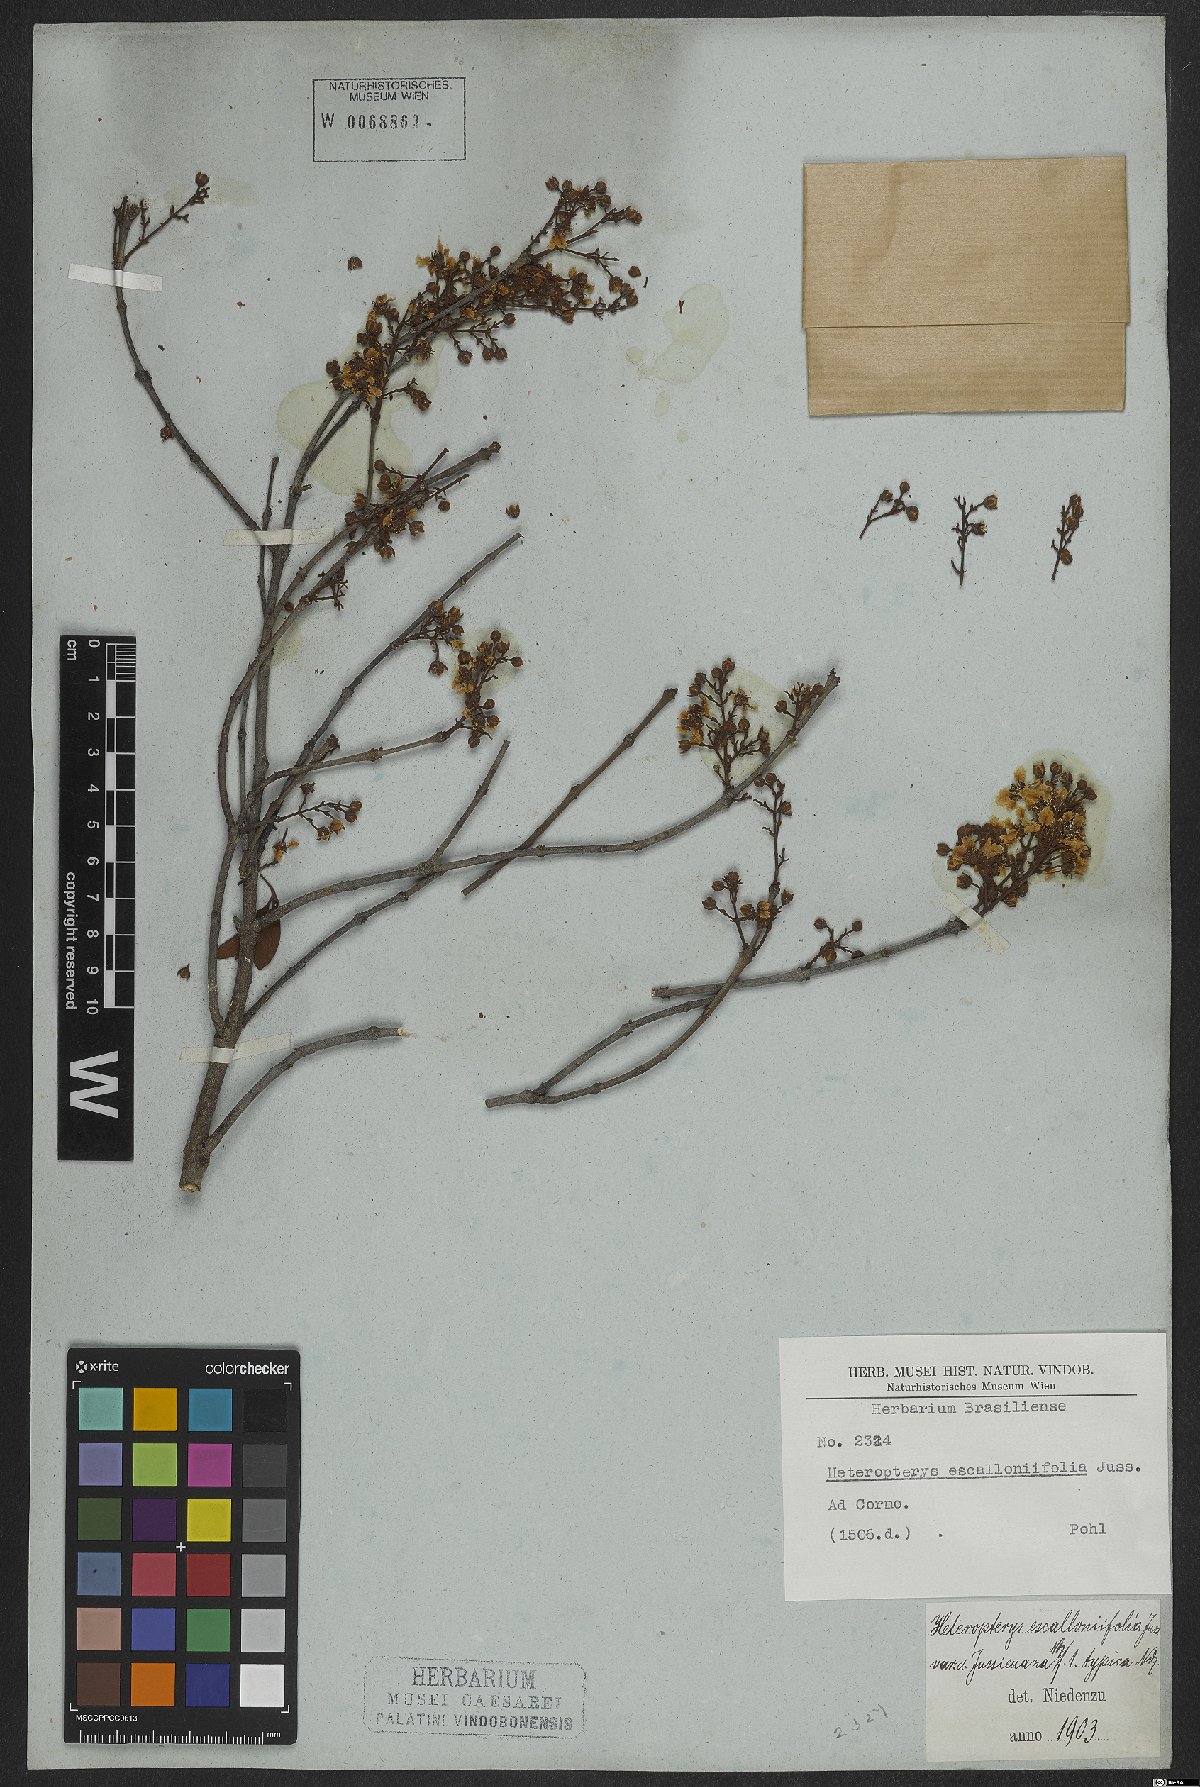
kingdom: Plantae
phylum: Tracheophyta
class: Magnoliopsida
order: Malpighiales
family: Malpighiaceae
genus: Heteropterys
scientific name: Heteropterys escalloniifolia
